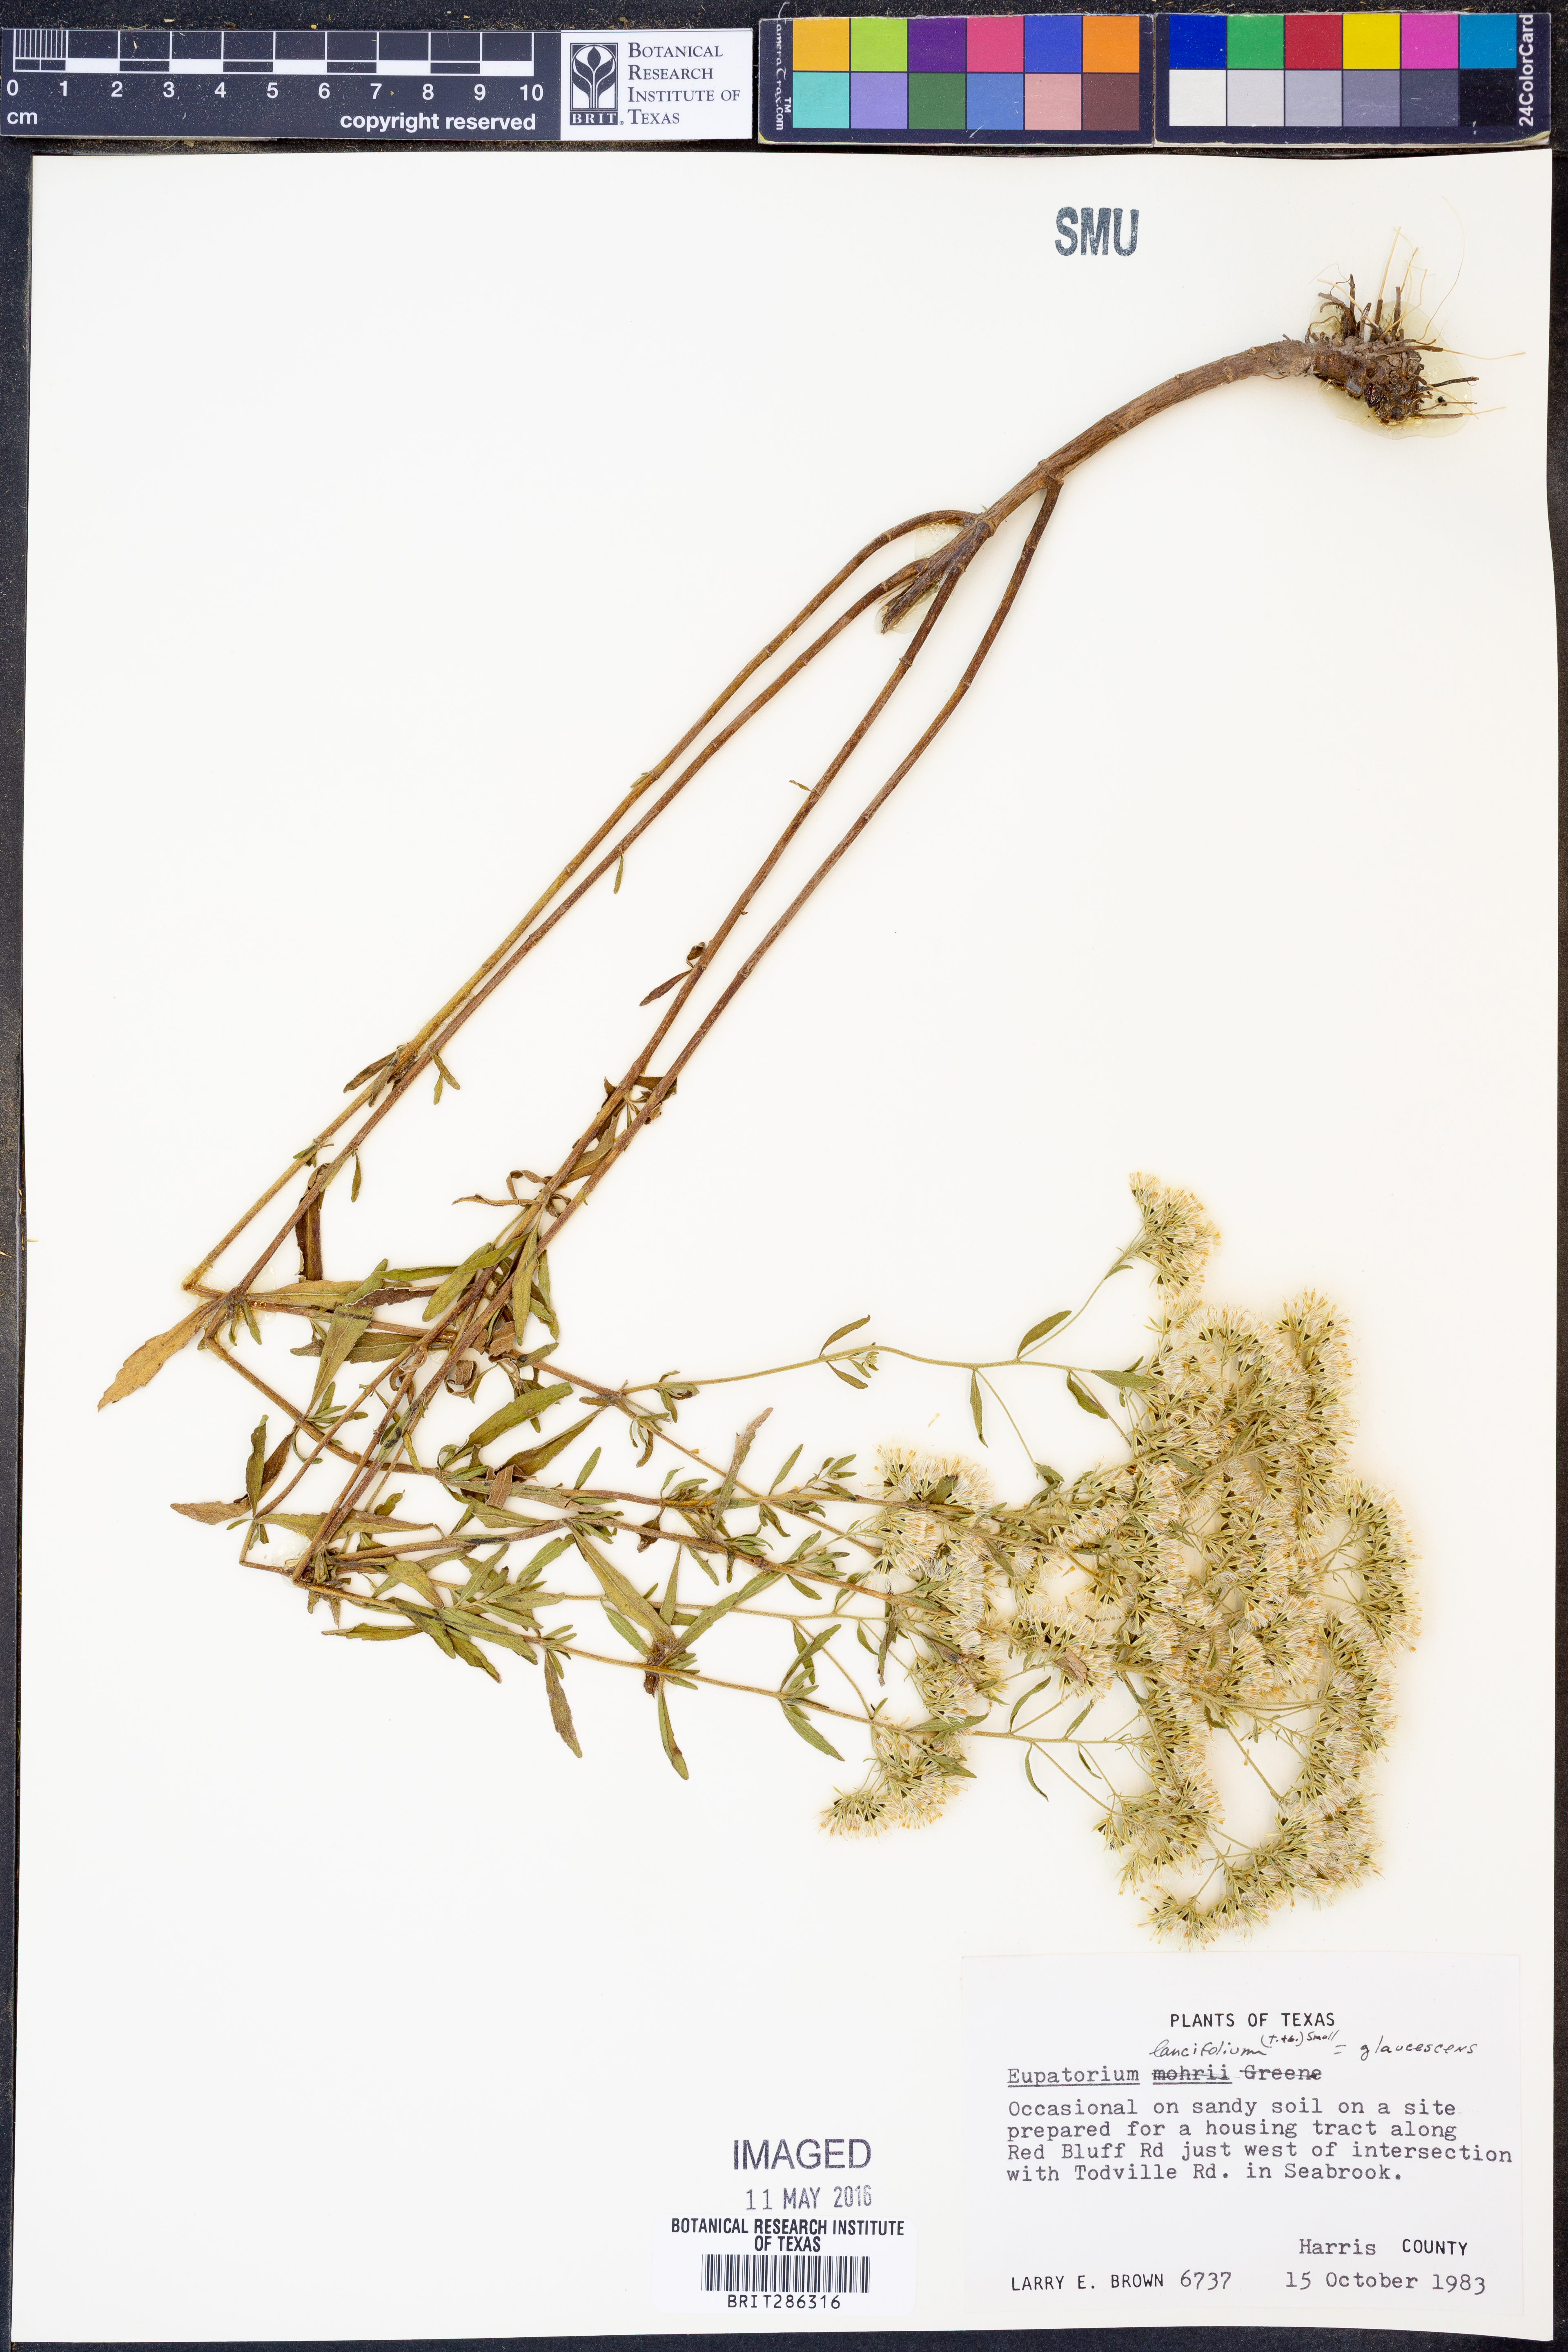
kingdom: Plantae
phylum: Tracheophyta
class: Magnoliopsida
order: Asterales
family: Asteraceae
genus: Eupatorium
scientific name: Eupatorium linearifolium
